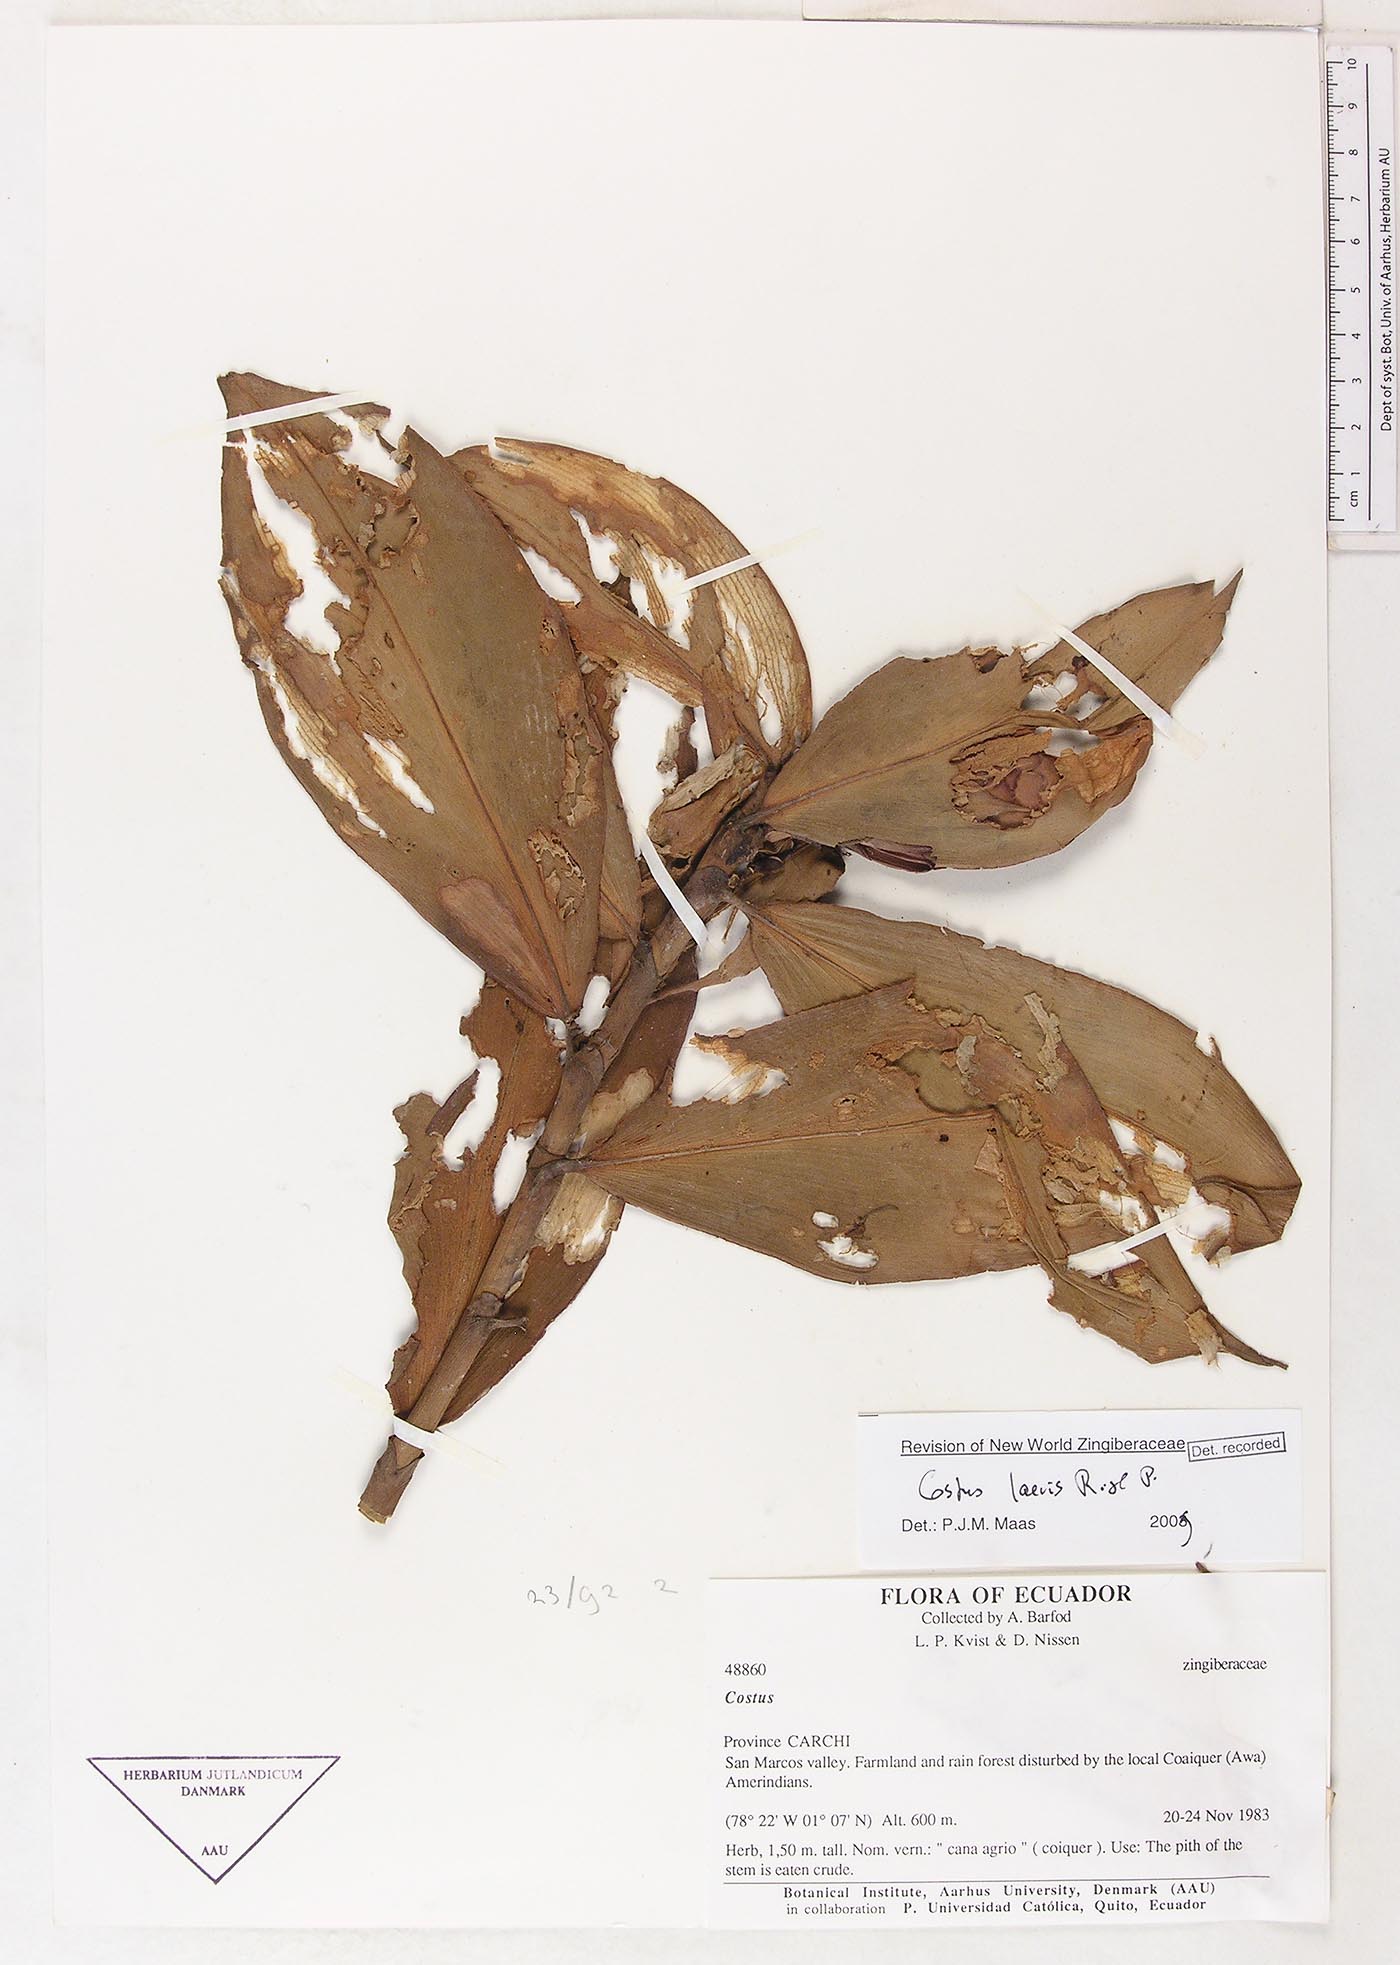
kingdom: Plantae
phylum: Tracheophyta
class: Liliopsida
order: Zingiberales
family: Costaceae
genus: Costus
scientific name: Costus laevis
